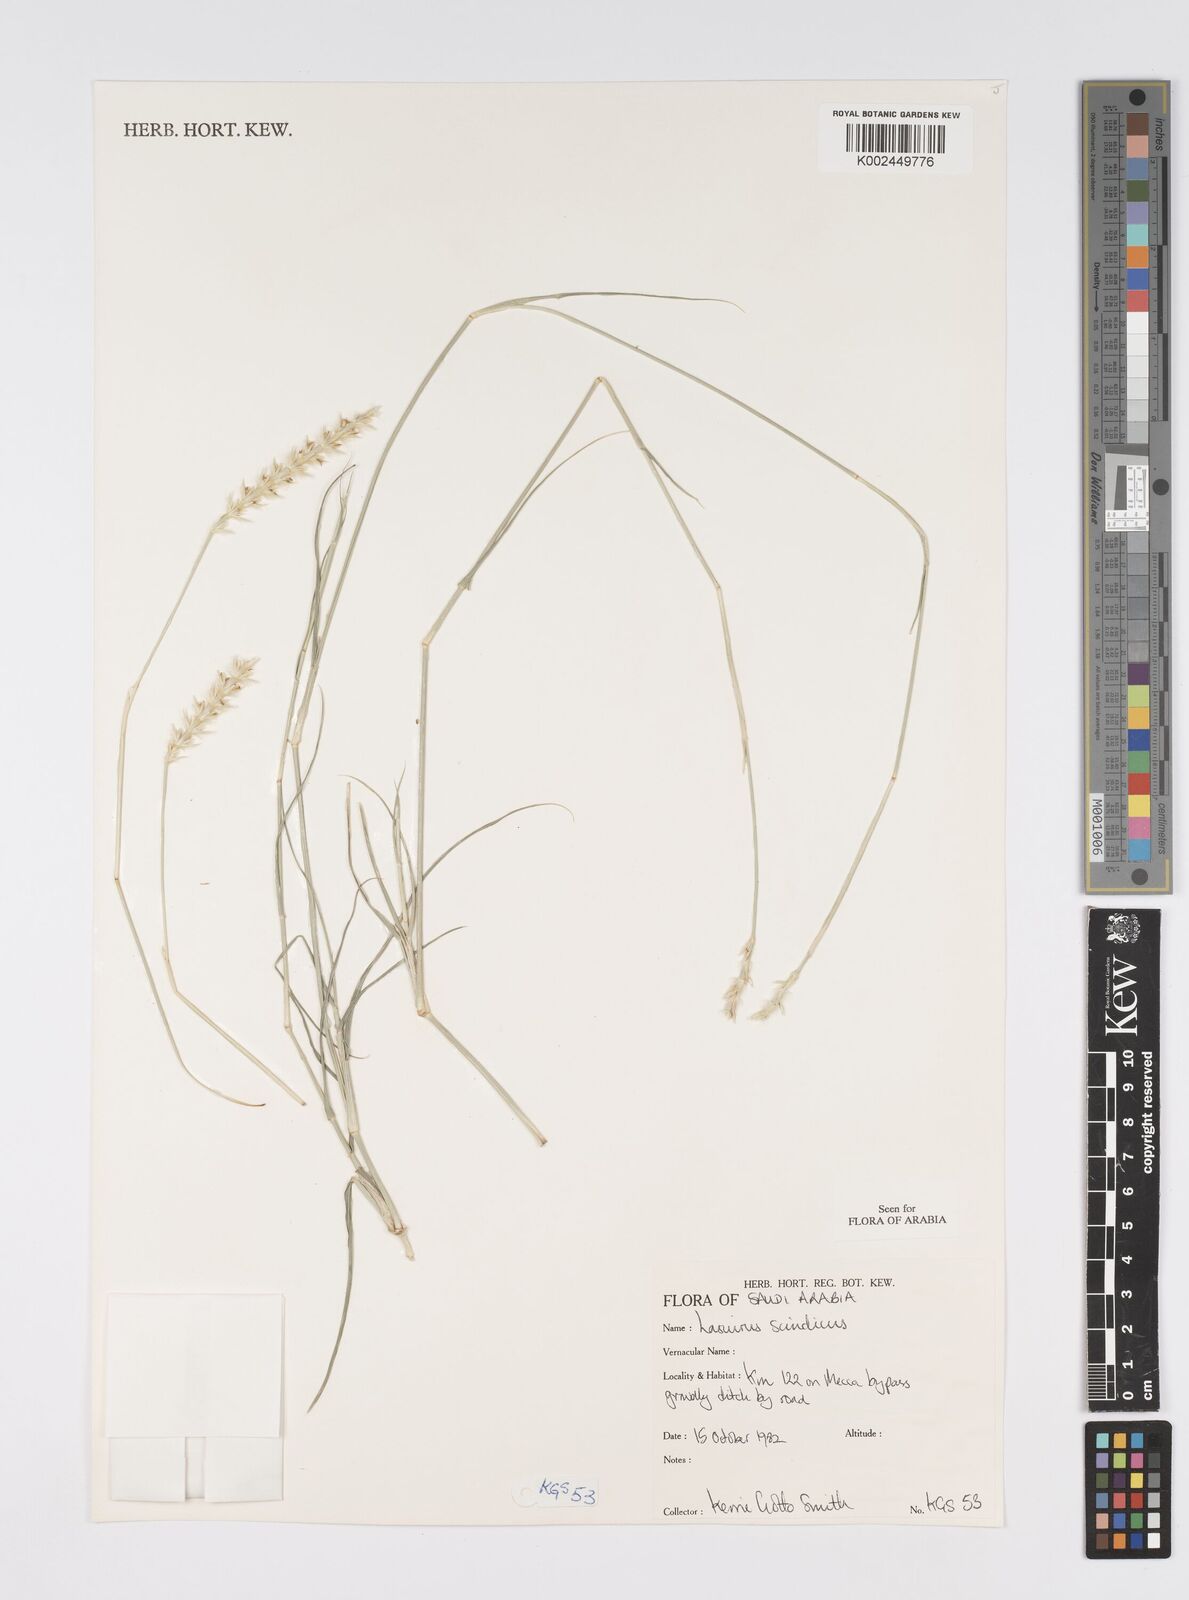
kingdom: Plantae
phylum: Tracheophyta
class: Liliopsida
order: Poales
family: Poaceae
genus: Lasiurus
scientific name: Lasiurus scindicus
